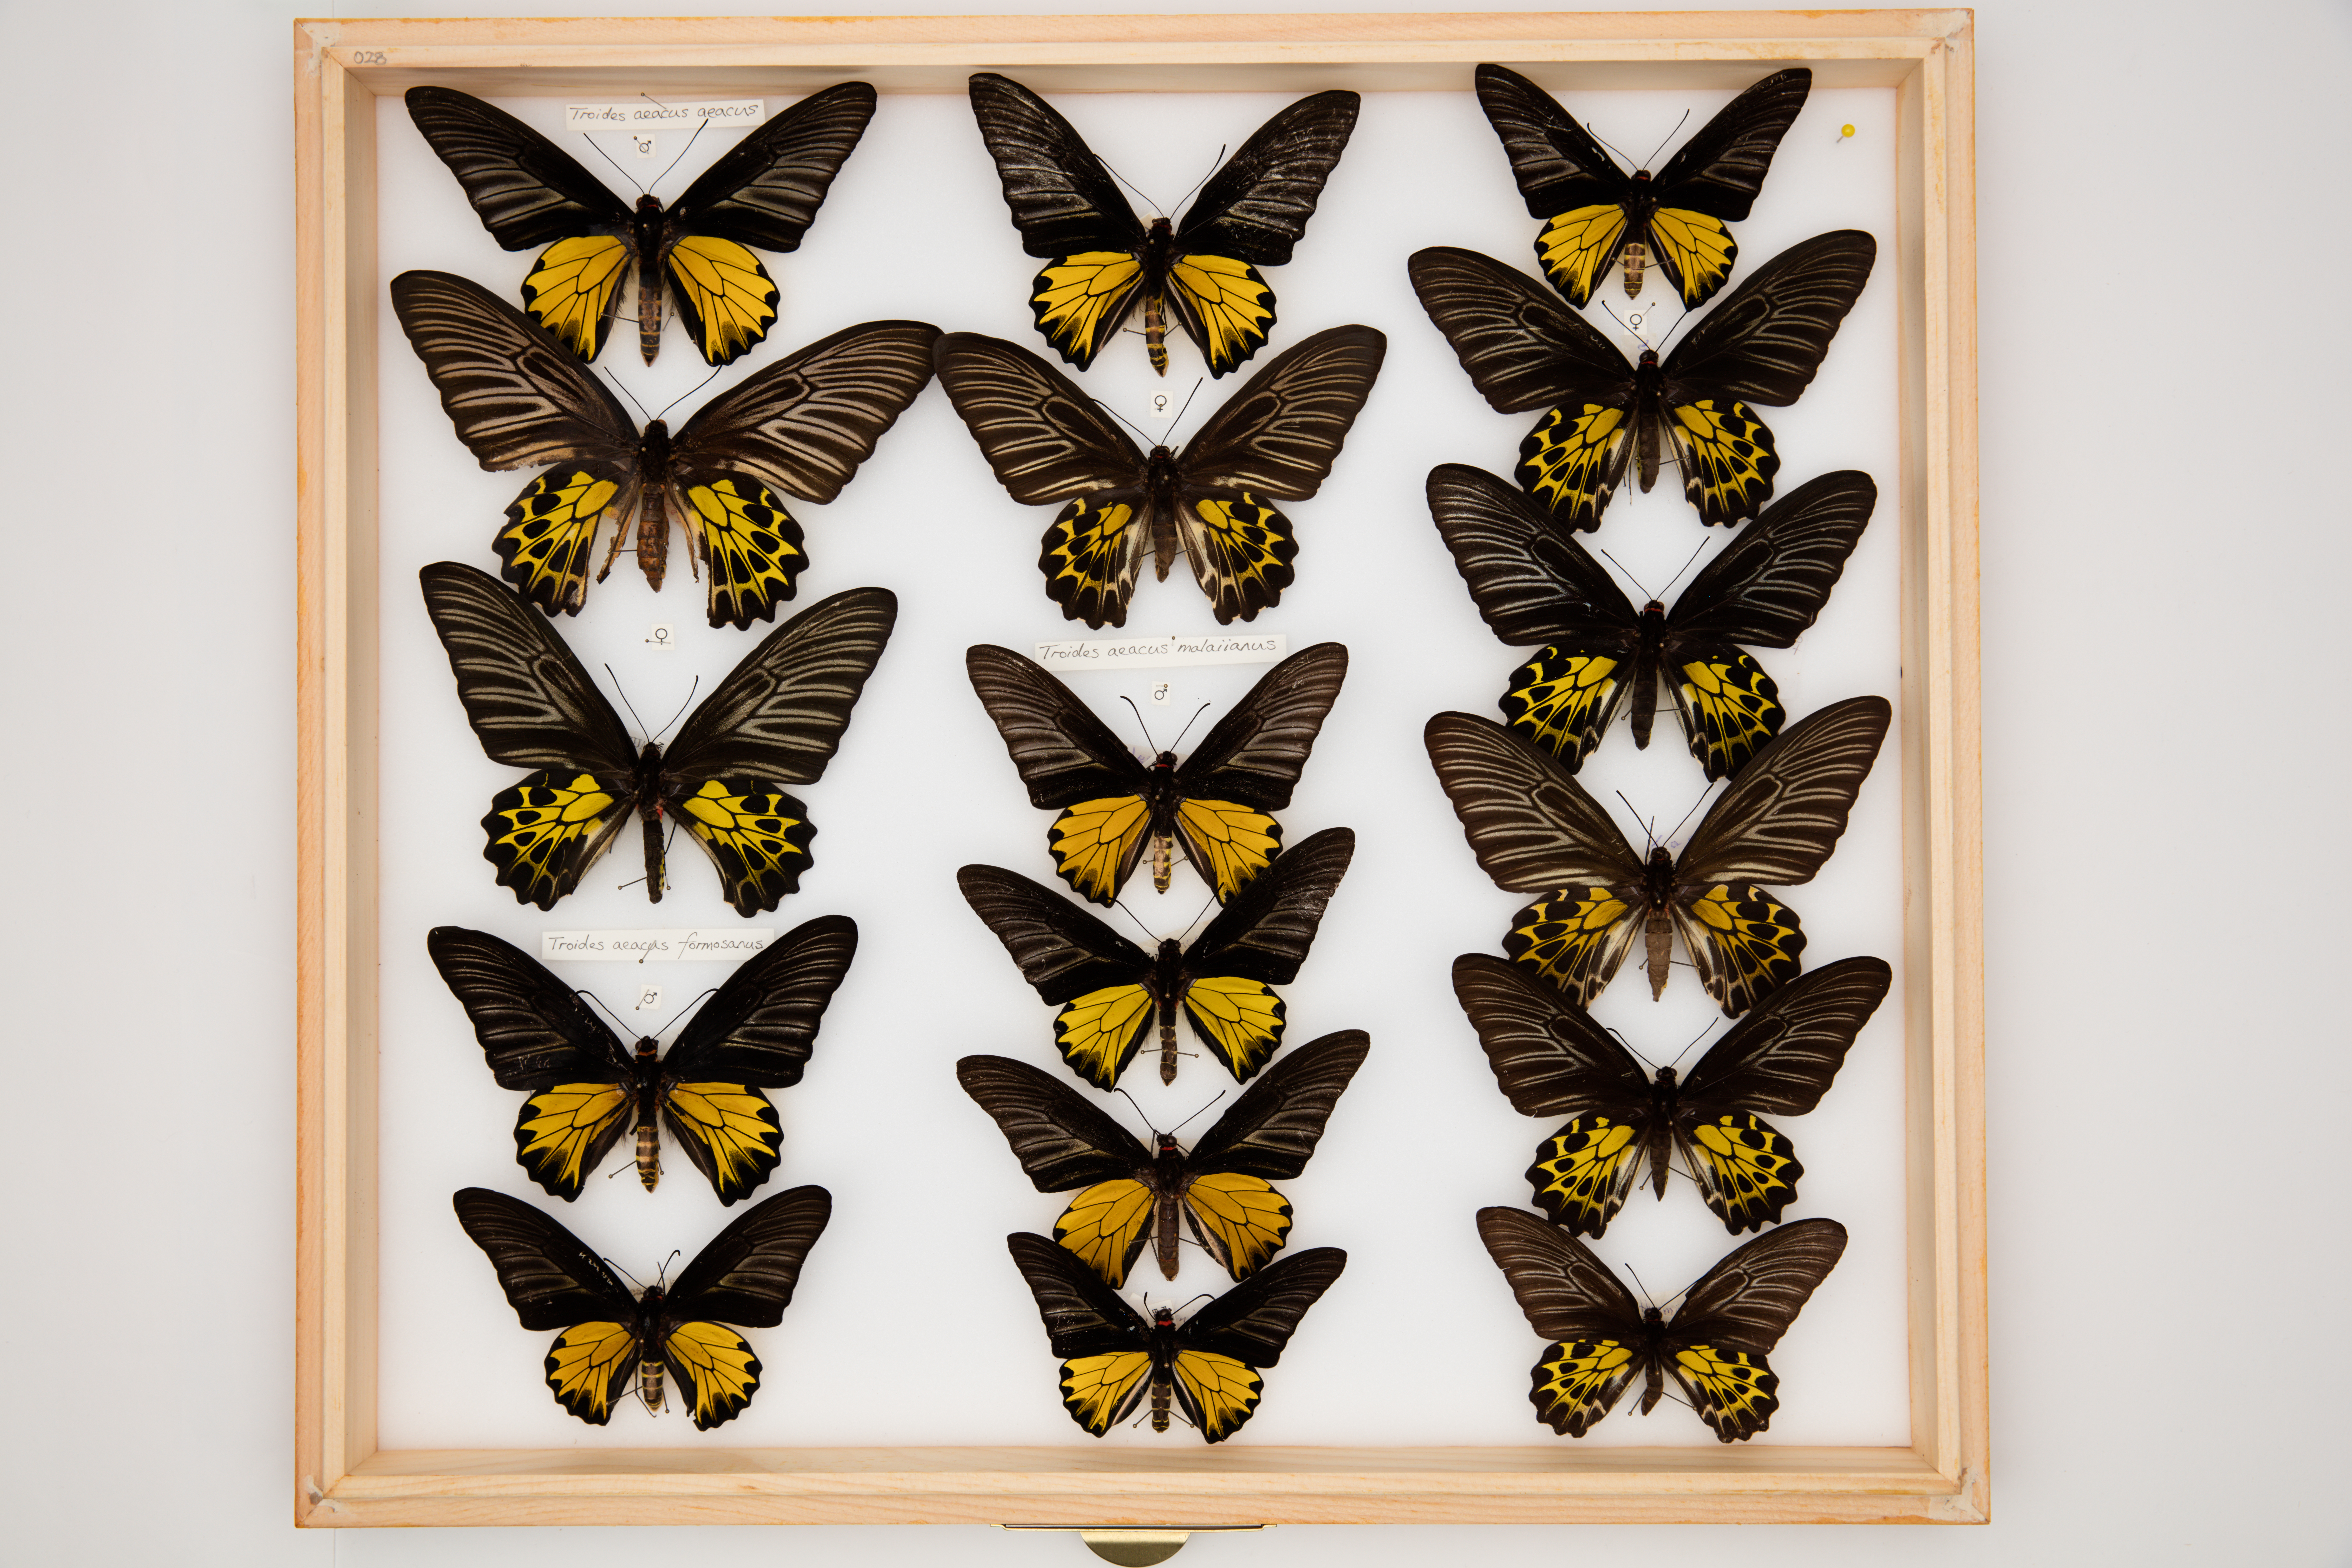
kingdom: Animalia
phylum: Arthropoda
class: Insecta
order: Lepidoptera
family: Papilionidae
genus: Troides
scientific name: Troides aeacus
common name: Golden birdwing
